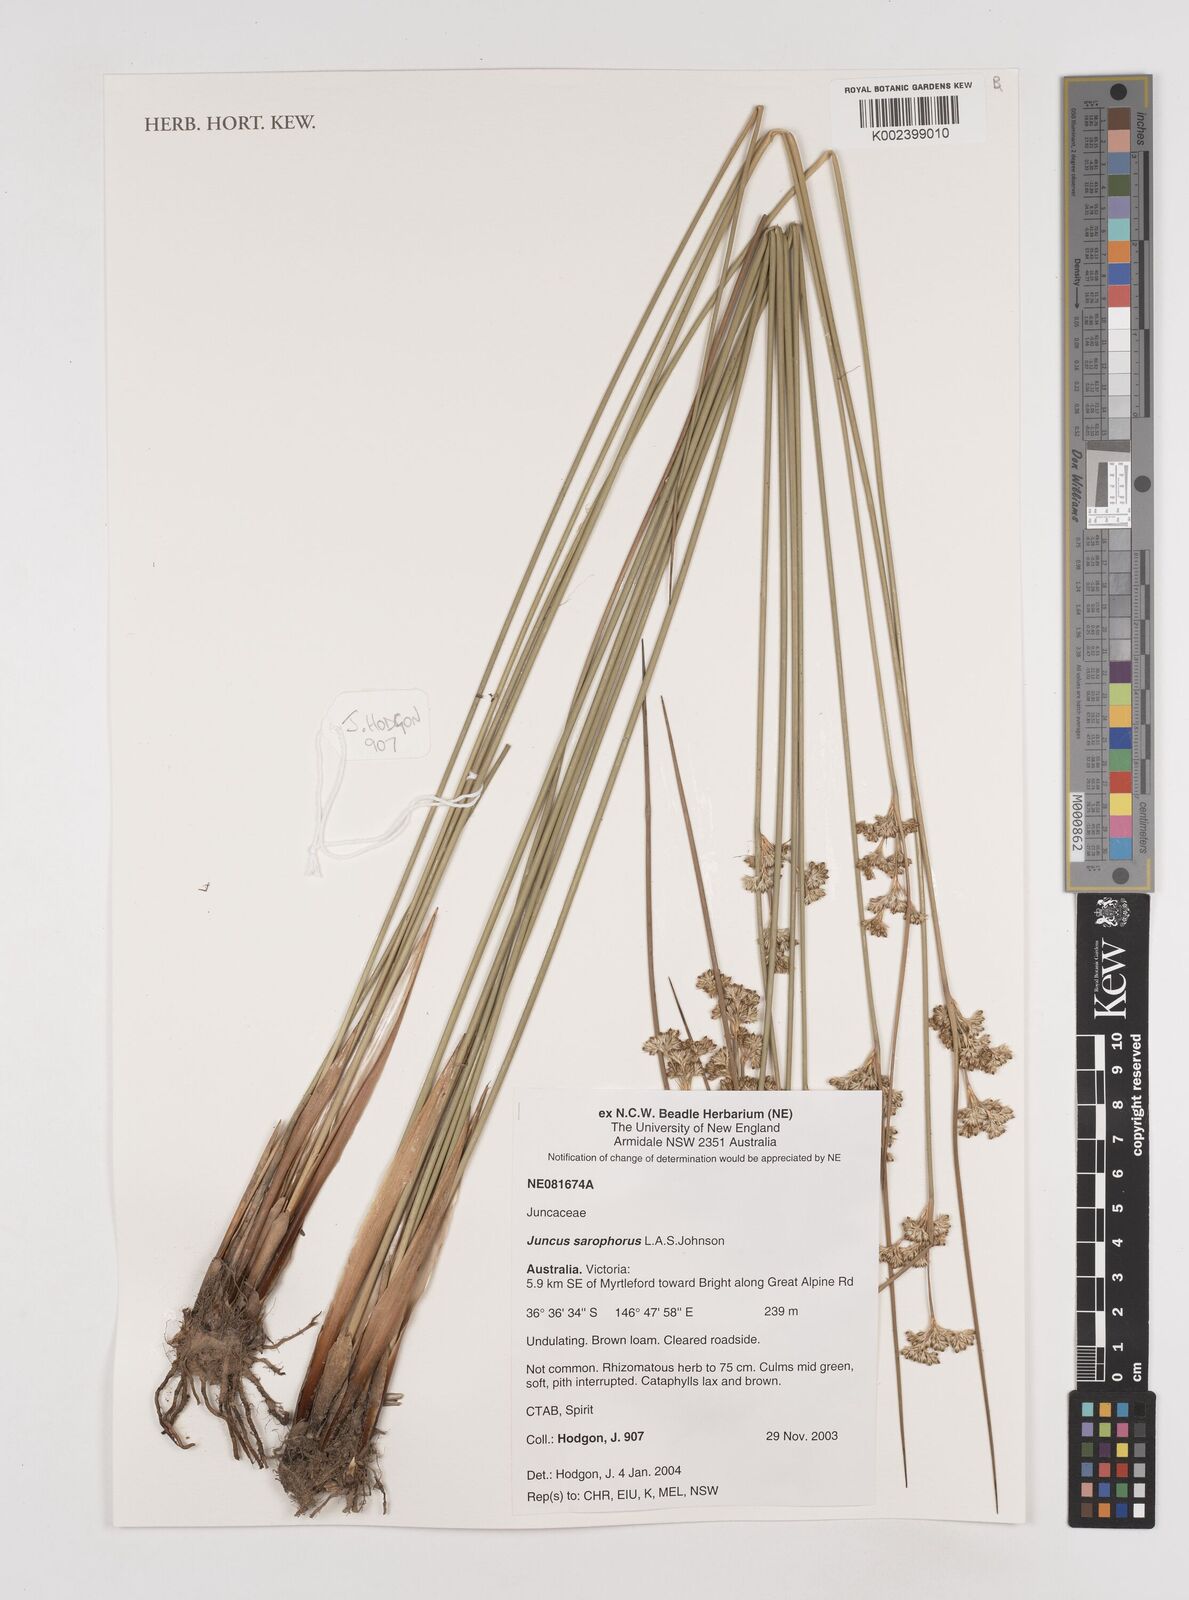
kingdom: Plantae
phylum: Tracheophyta
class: Liliopsida
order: Poales
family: Juncaceae
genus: Juncus
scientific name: Juncus sarophorus
